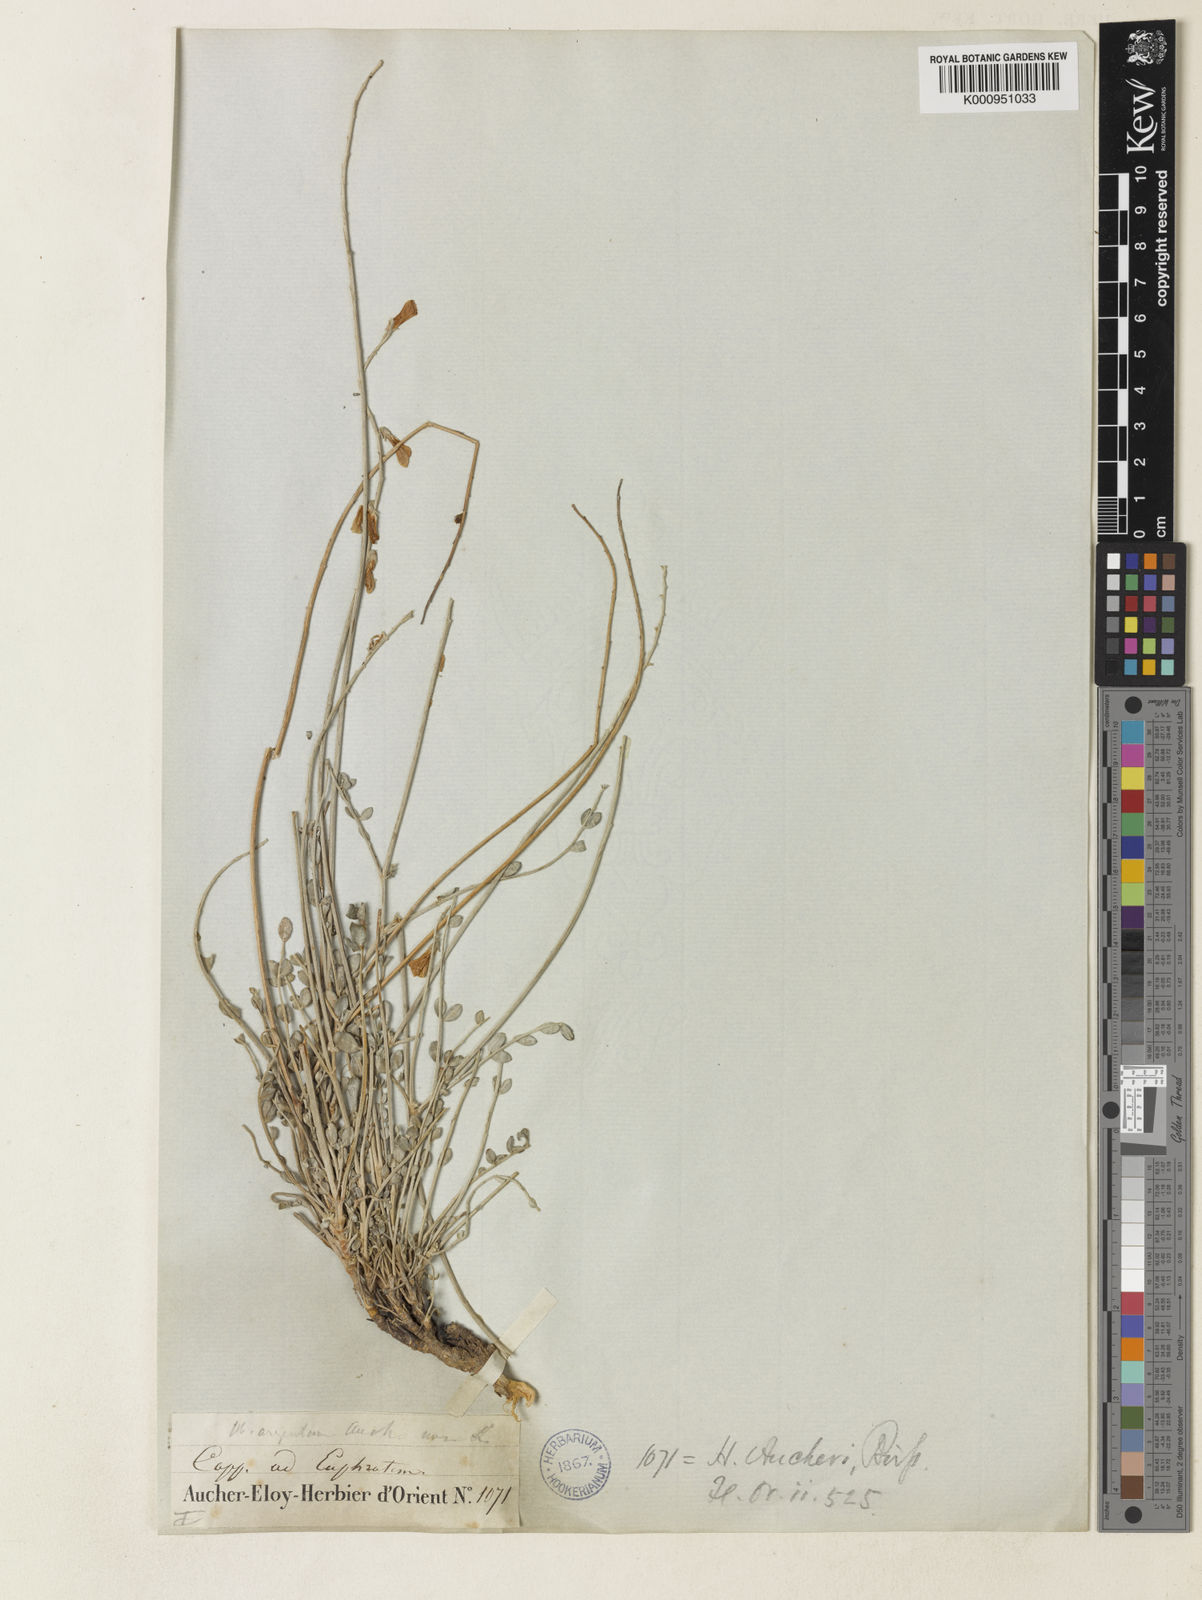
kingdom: Plantae
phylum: Tracheophyta
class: Magnoliopsida
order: Fabales
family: Fabaceae
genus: Hedysarum
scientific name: Hedysarum aucheri
